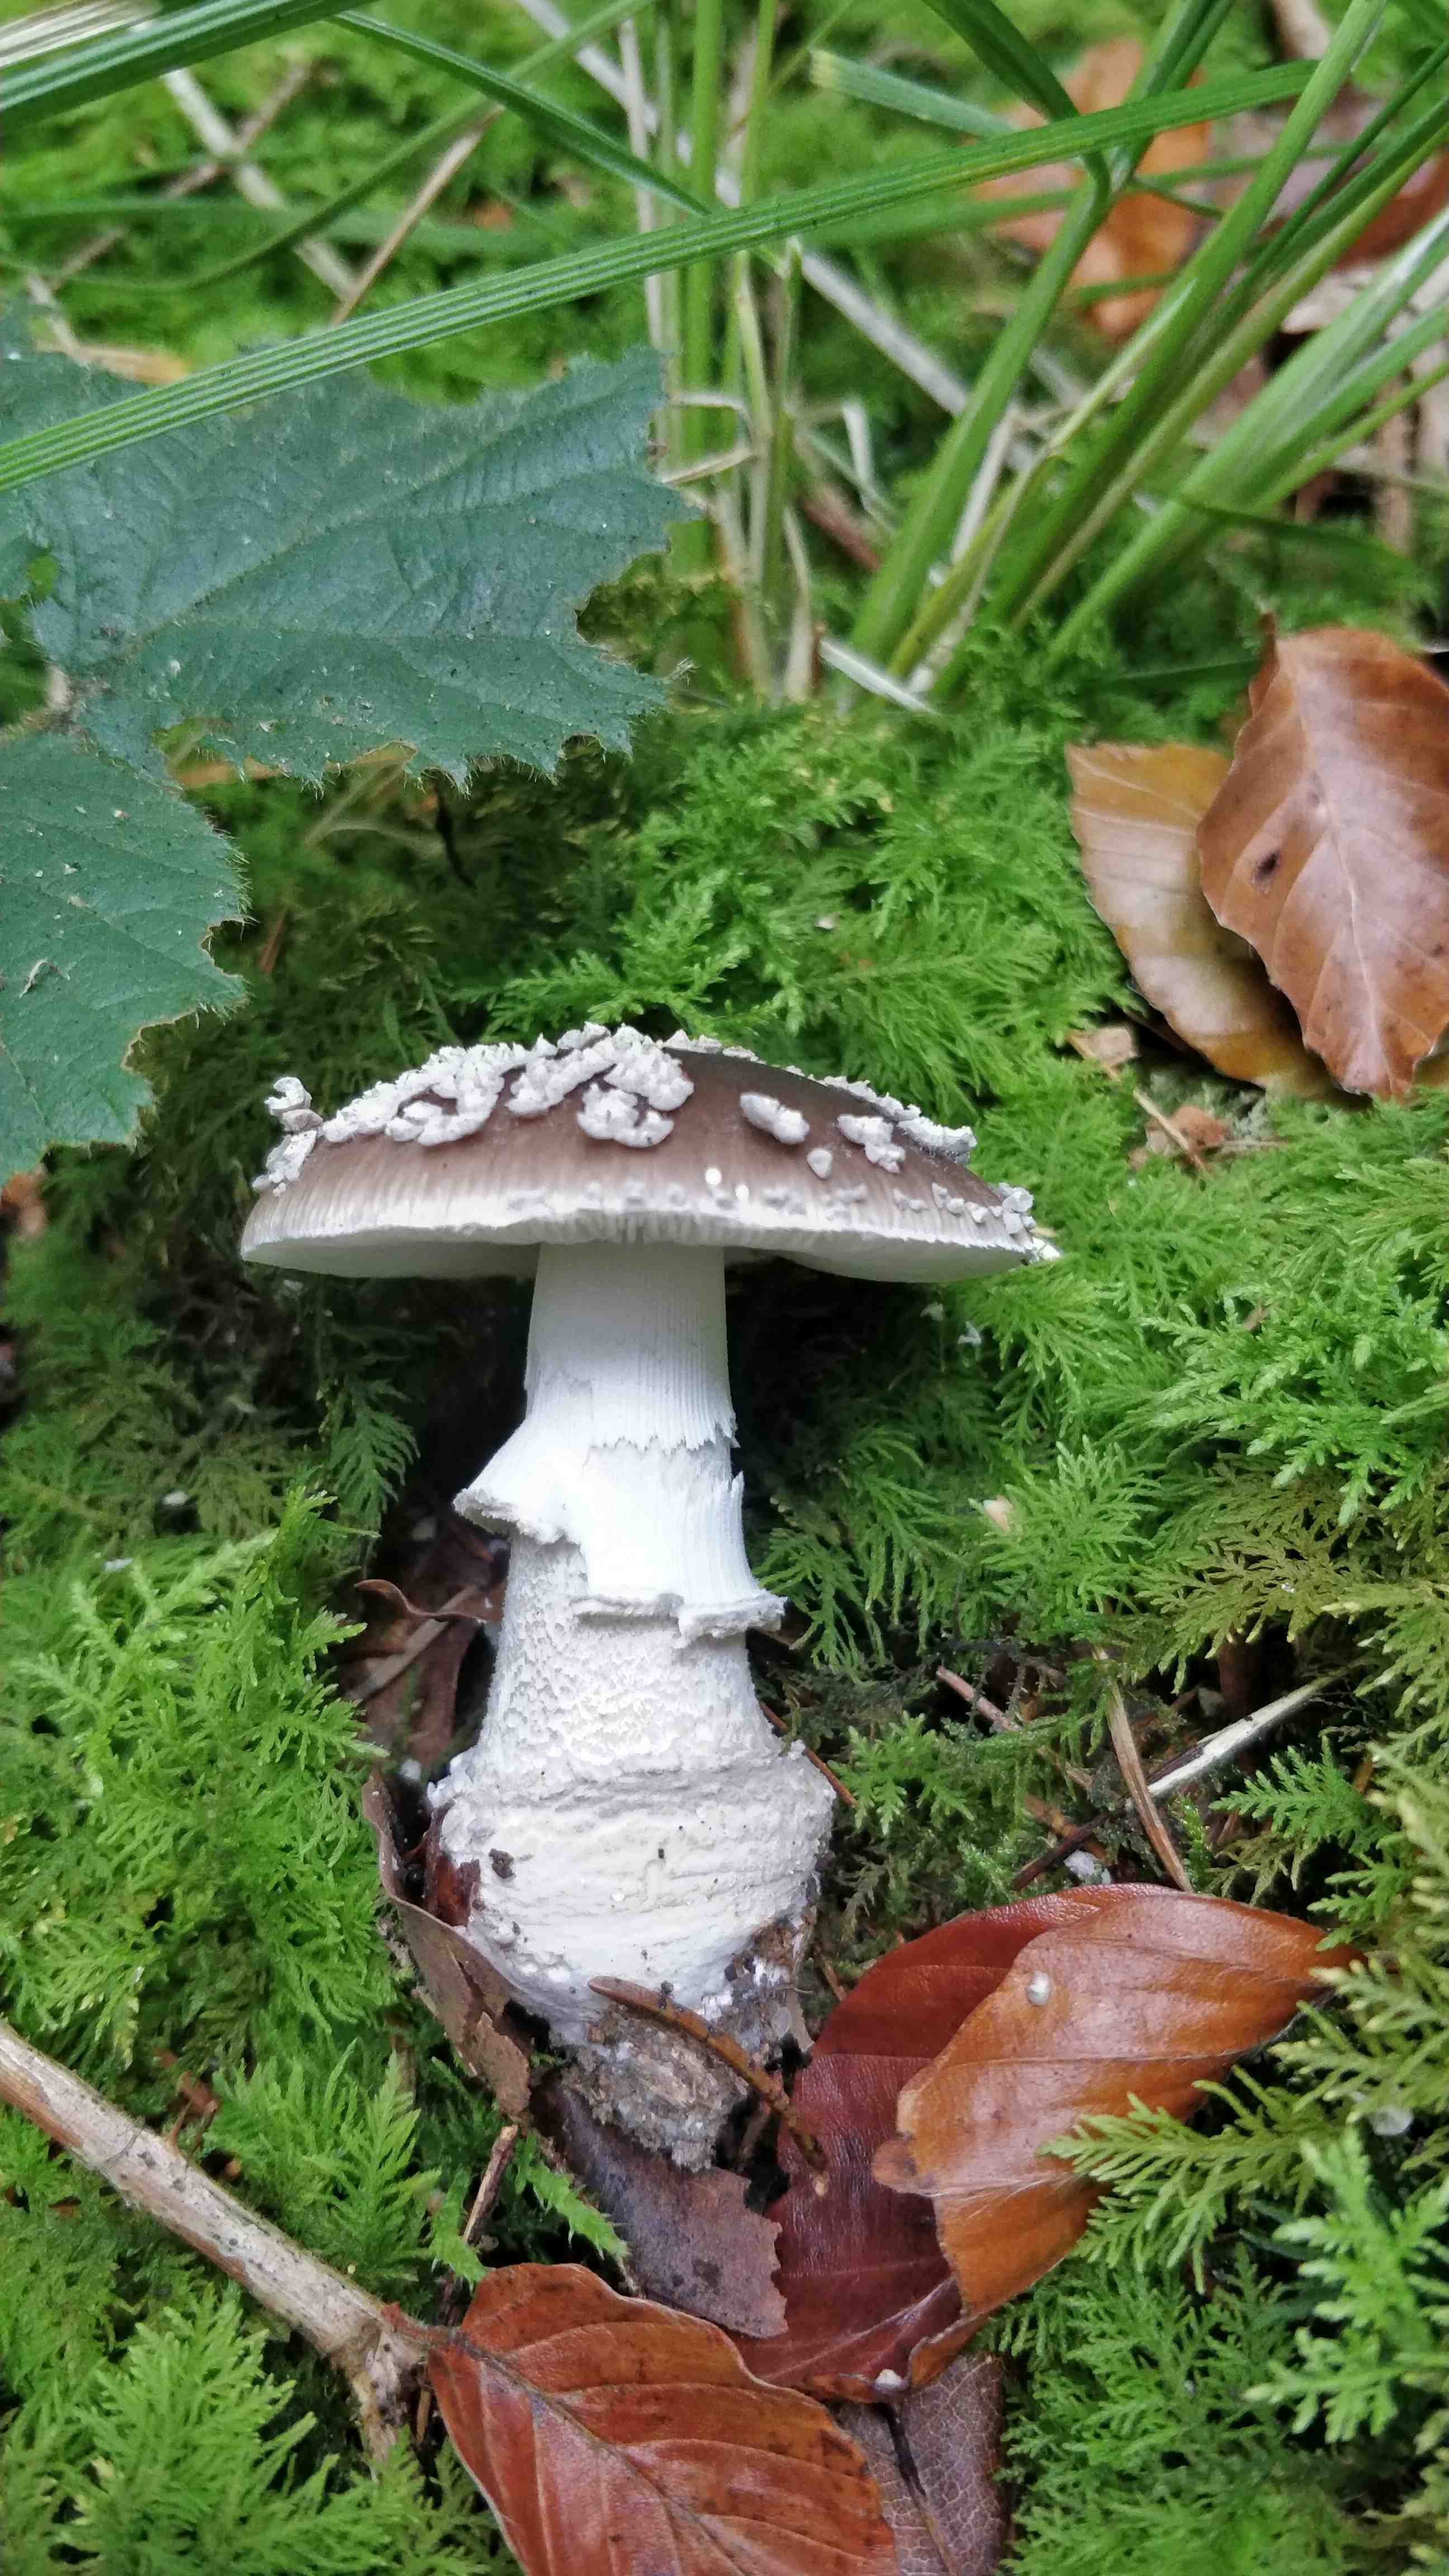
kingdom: Fungi
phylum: Basidiomycota
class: Agaricomycetes
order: Agaricales
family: Amanitaceae
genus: Amanita
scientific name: Amanita
